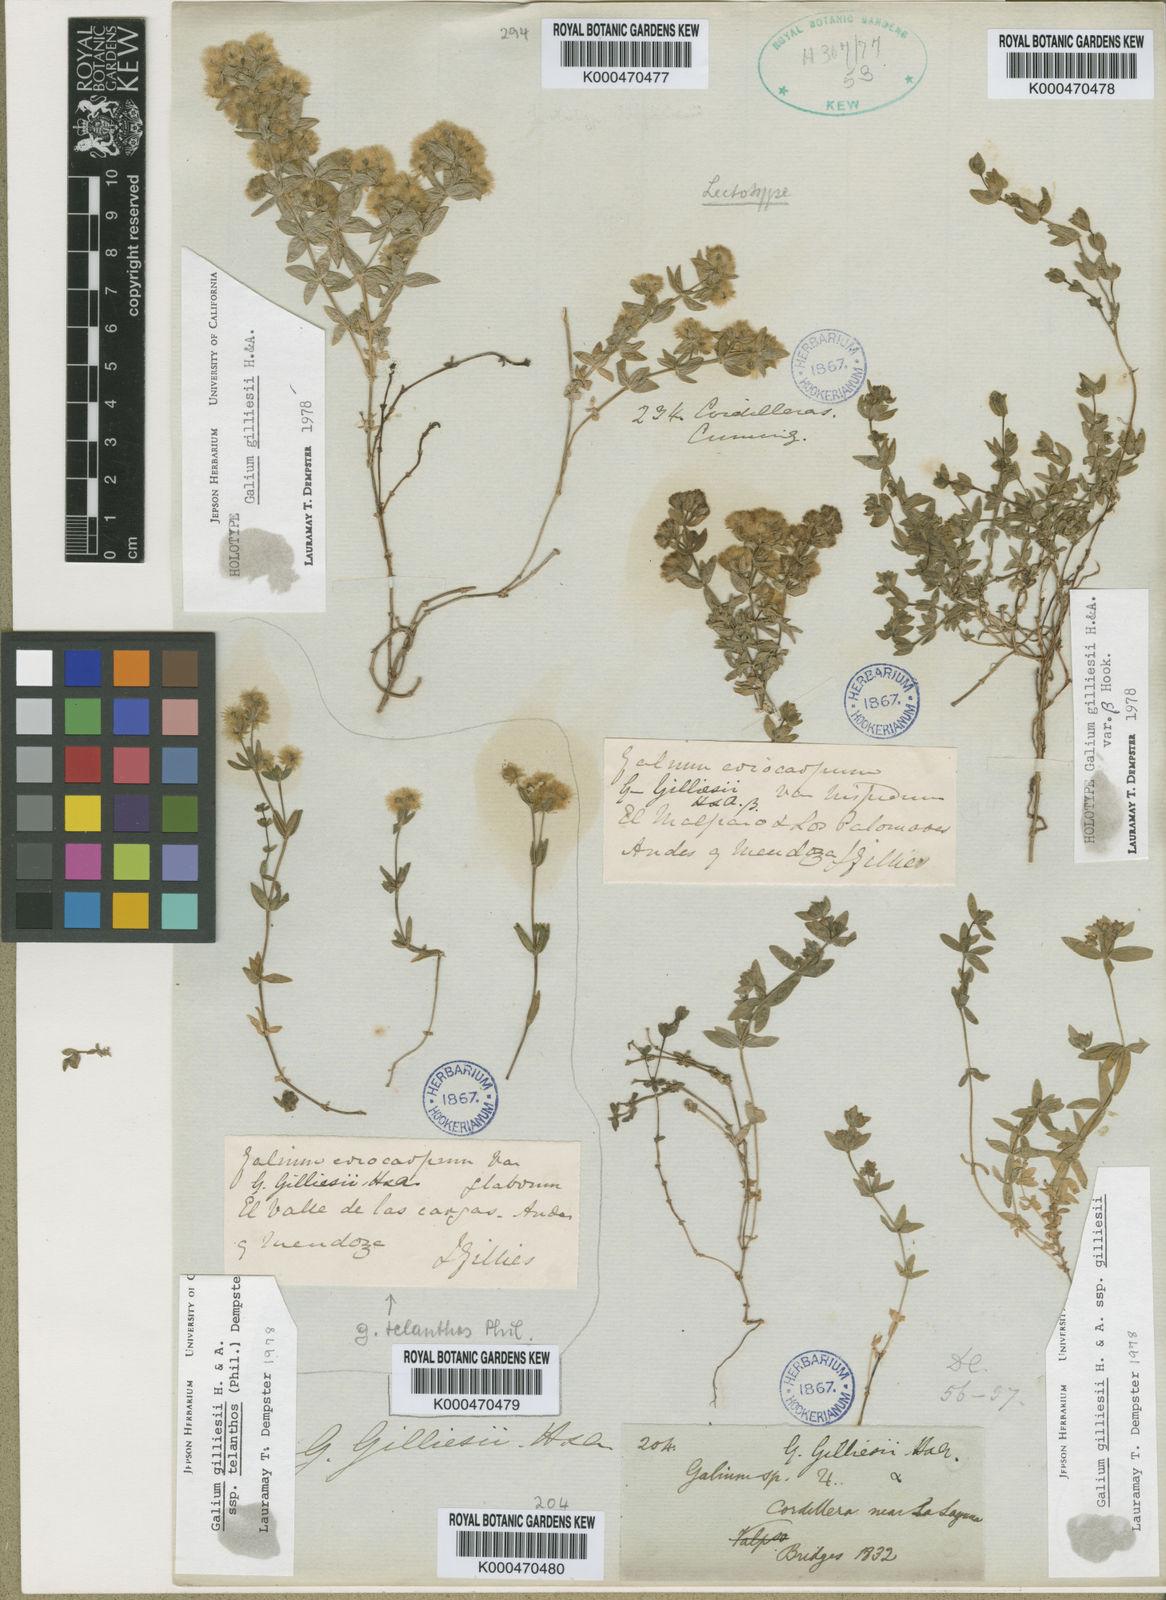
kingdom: Plantae
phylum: Tracheophyta
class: Magnoliopsida
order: Gentianales
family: Rubiaceae
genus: Galium
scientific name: Galium gilliesii
